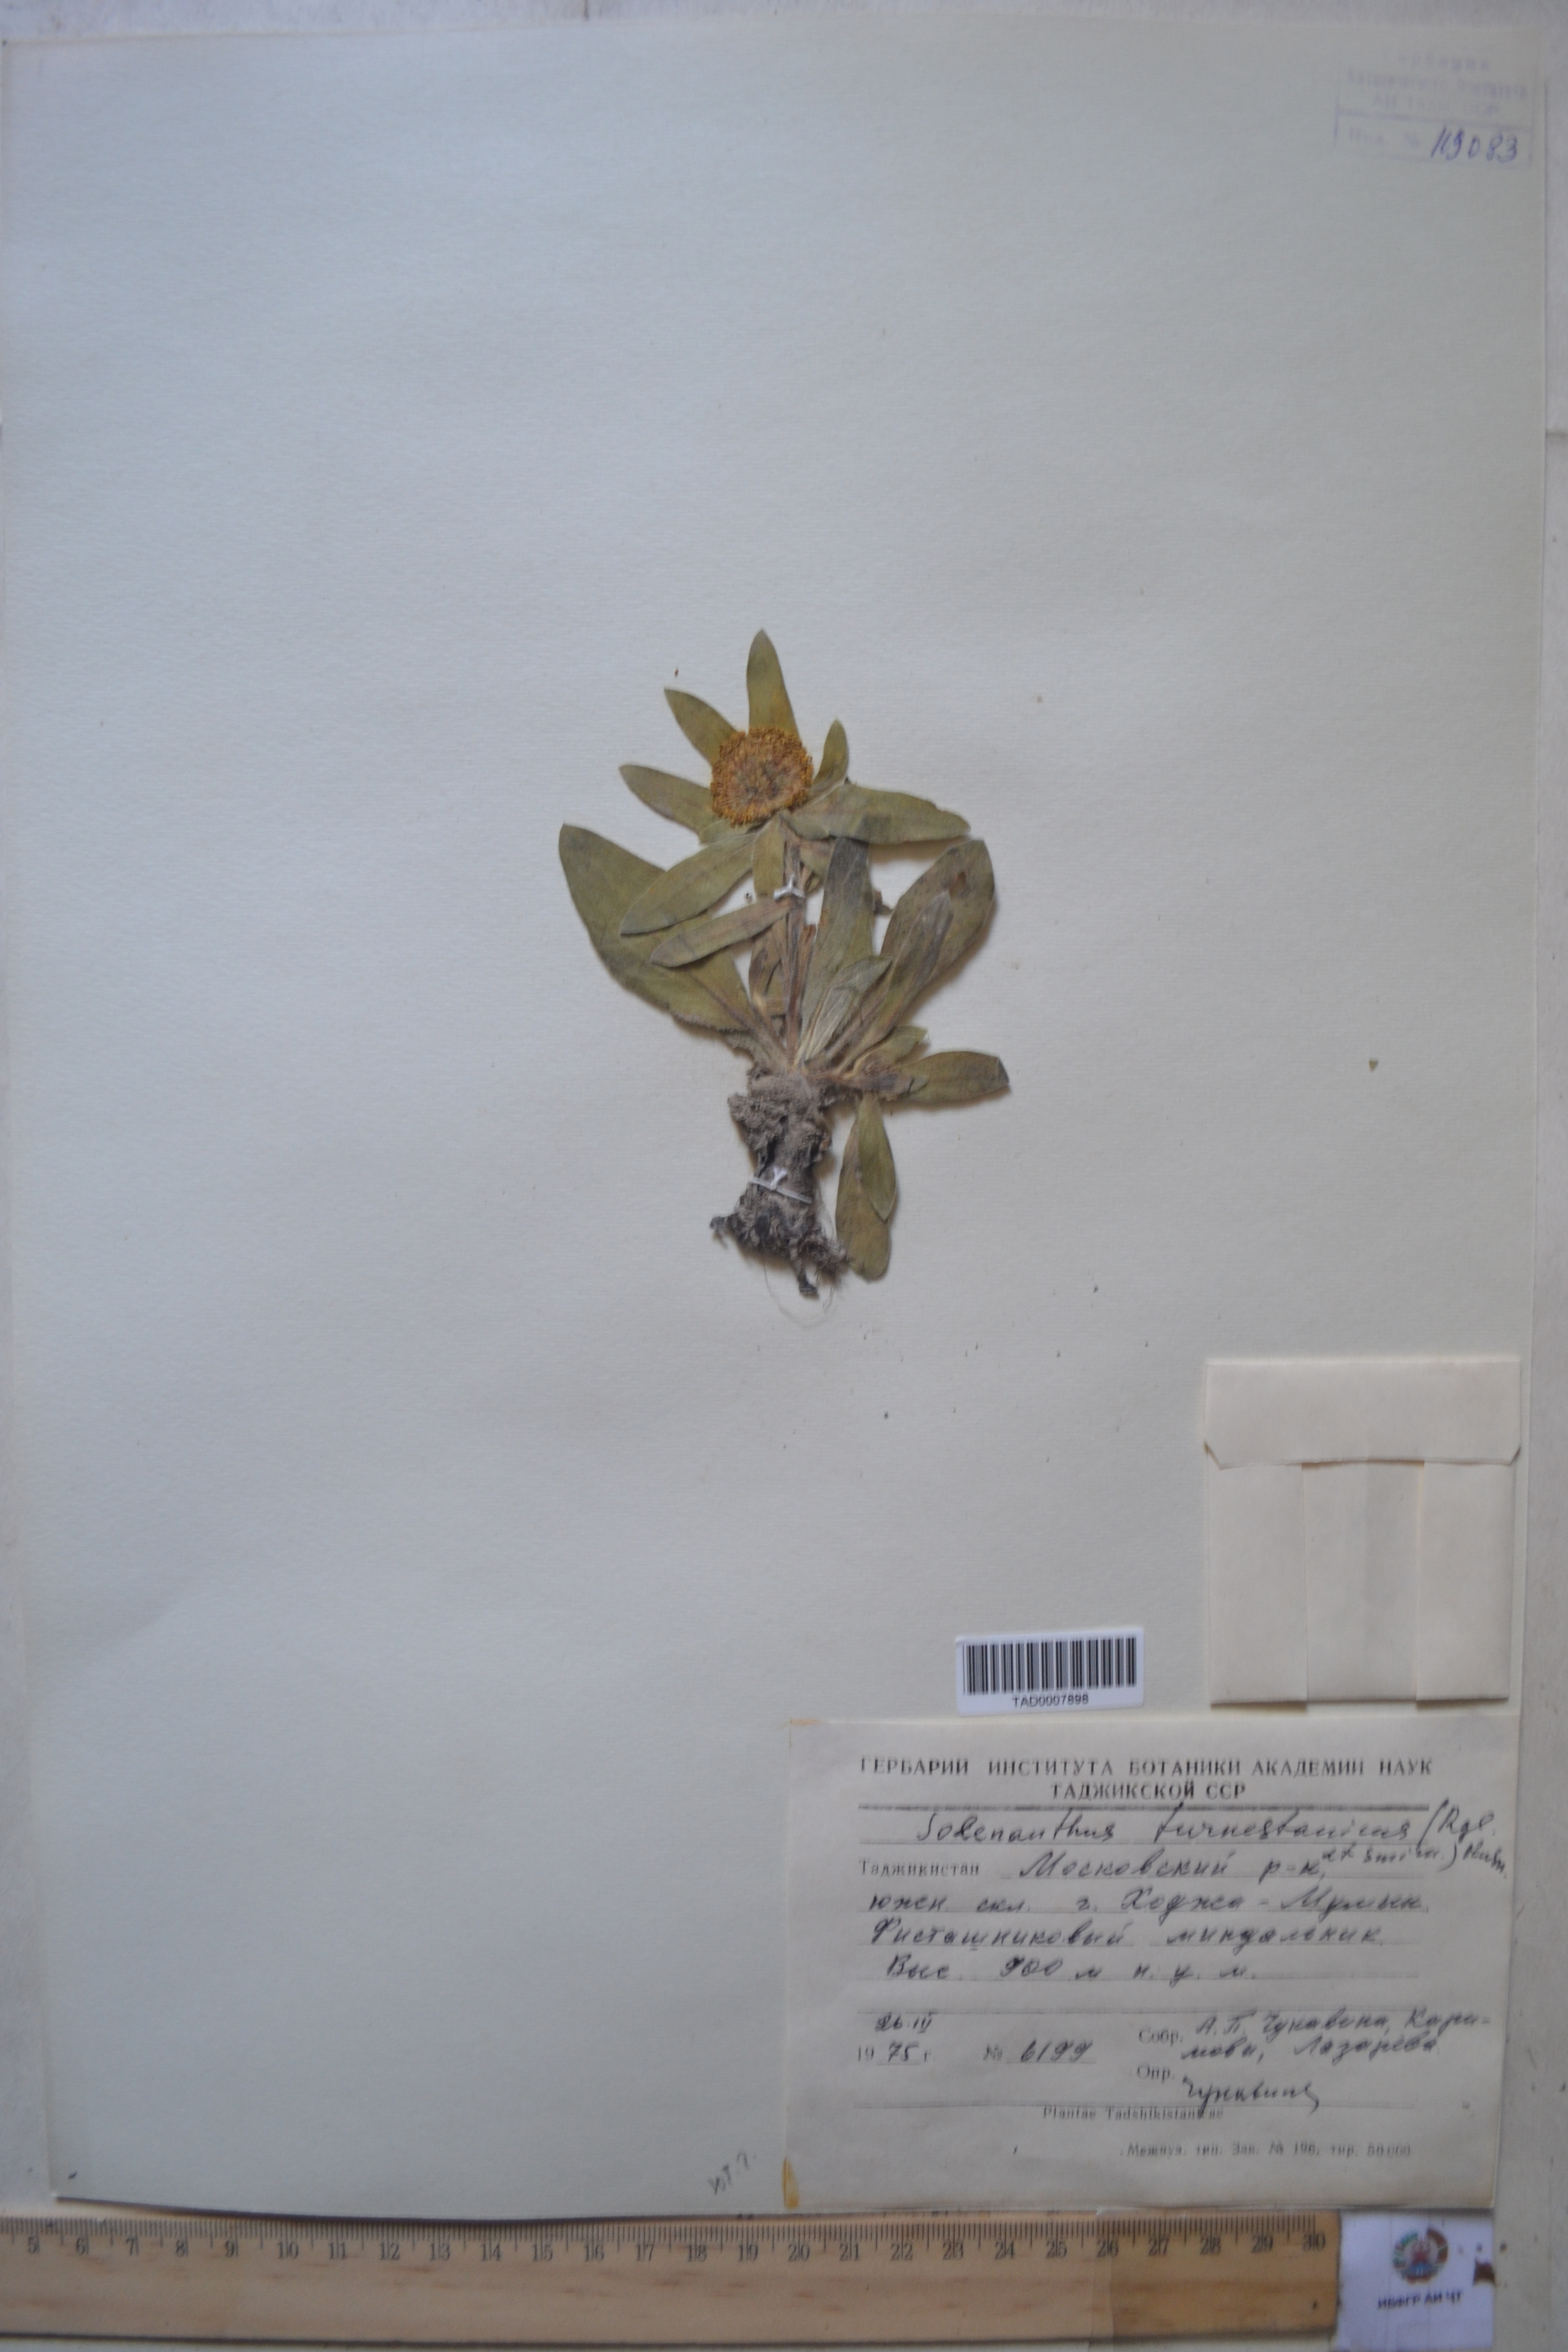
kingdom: Plantae
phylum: Tracheophyta
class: Magnoliopsida
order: Boraginales
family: Boraginaceae
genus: Solenanthus
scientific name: Solenanthus turkestanicus
